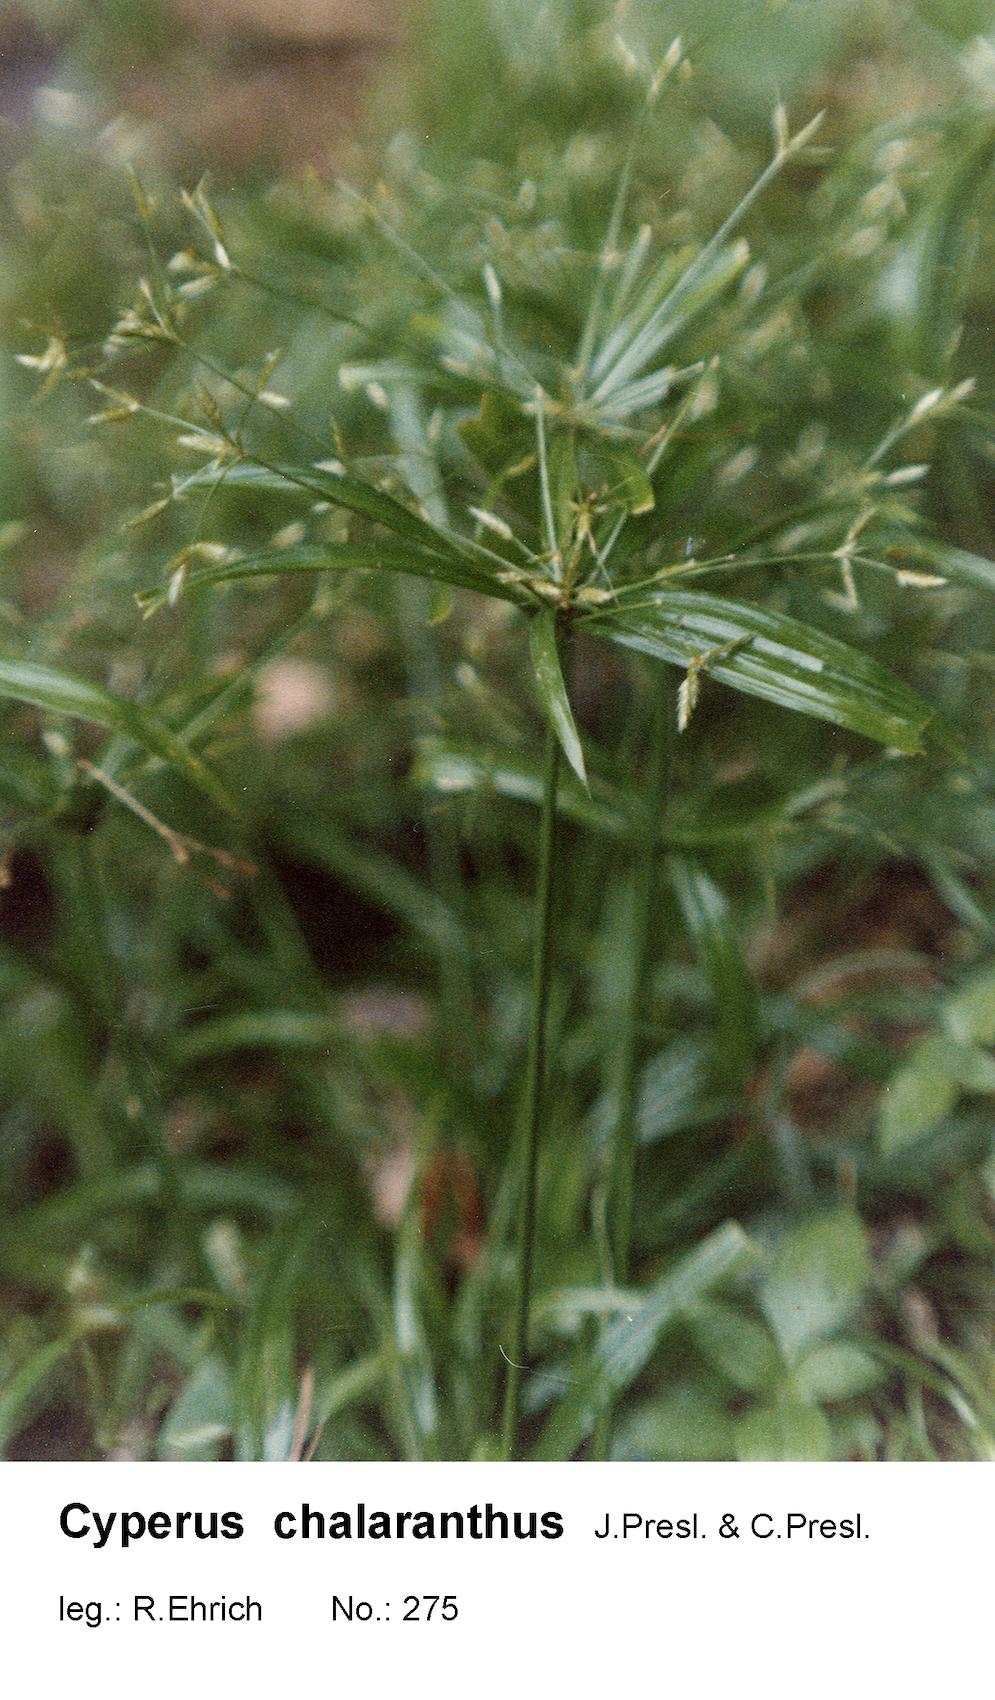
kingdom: Plantae
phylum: Tracheophyta
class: Liliopsida
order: Poales
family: Cyperaceae
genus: Cyperus
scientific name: Cyperus chalaranthus
